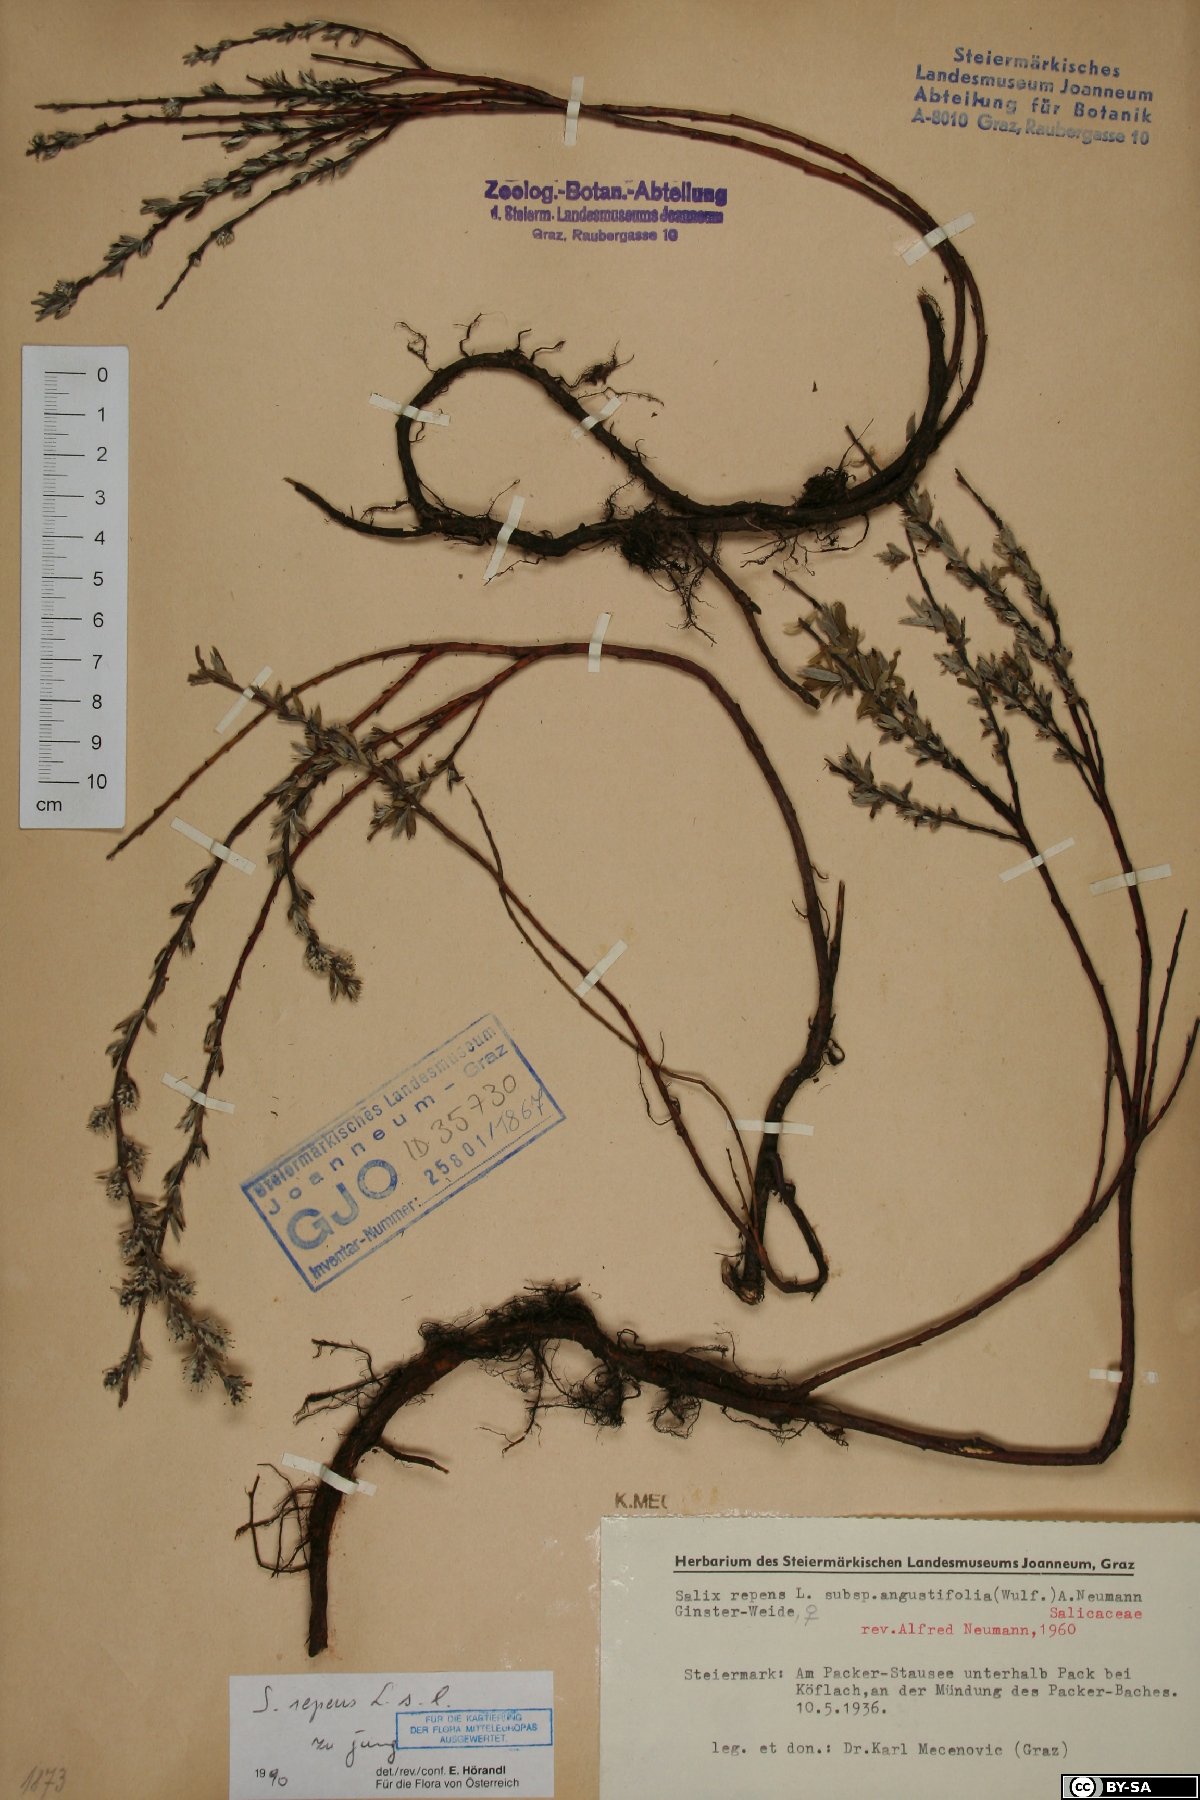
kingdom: Plantae
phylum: Tracheophyta
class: Magnoliopsida
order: Malpighiales
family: Salicaceae
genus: Salix
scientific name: Salix repens
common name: Creeping willow
